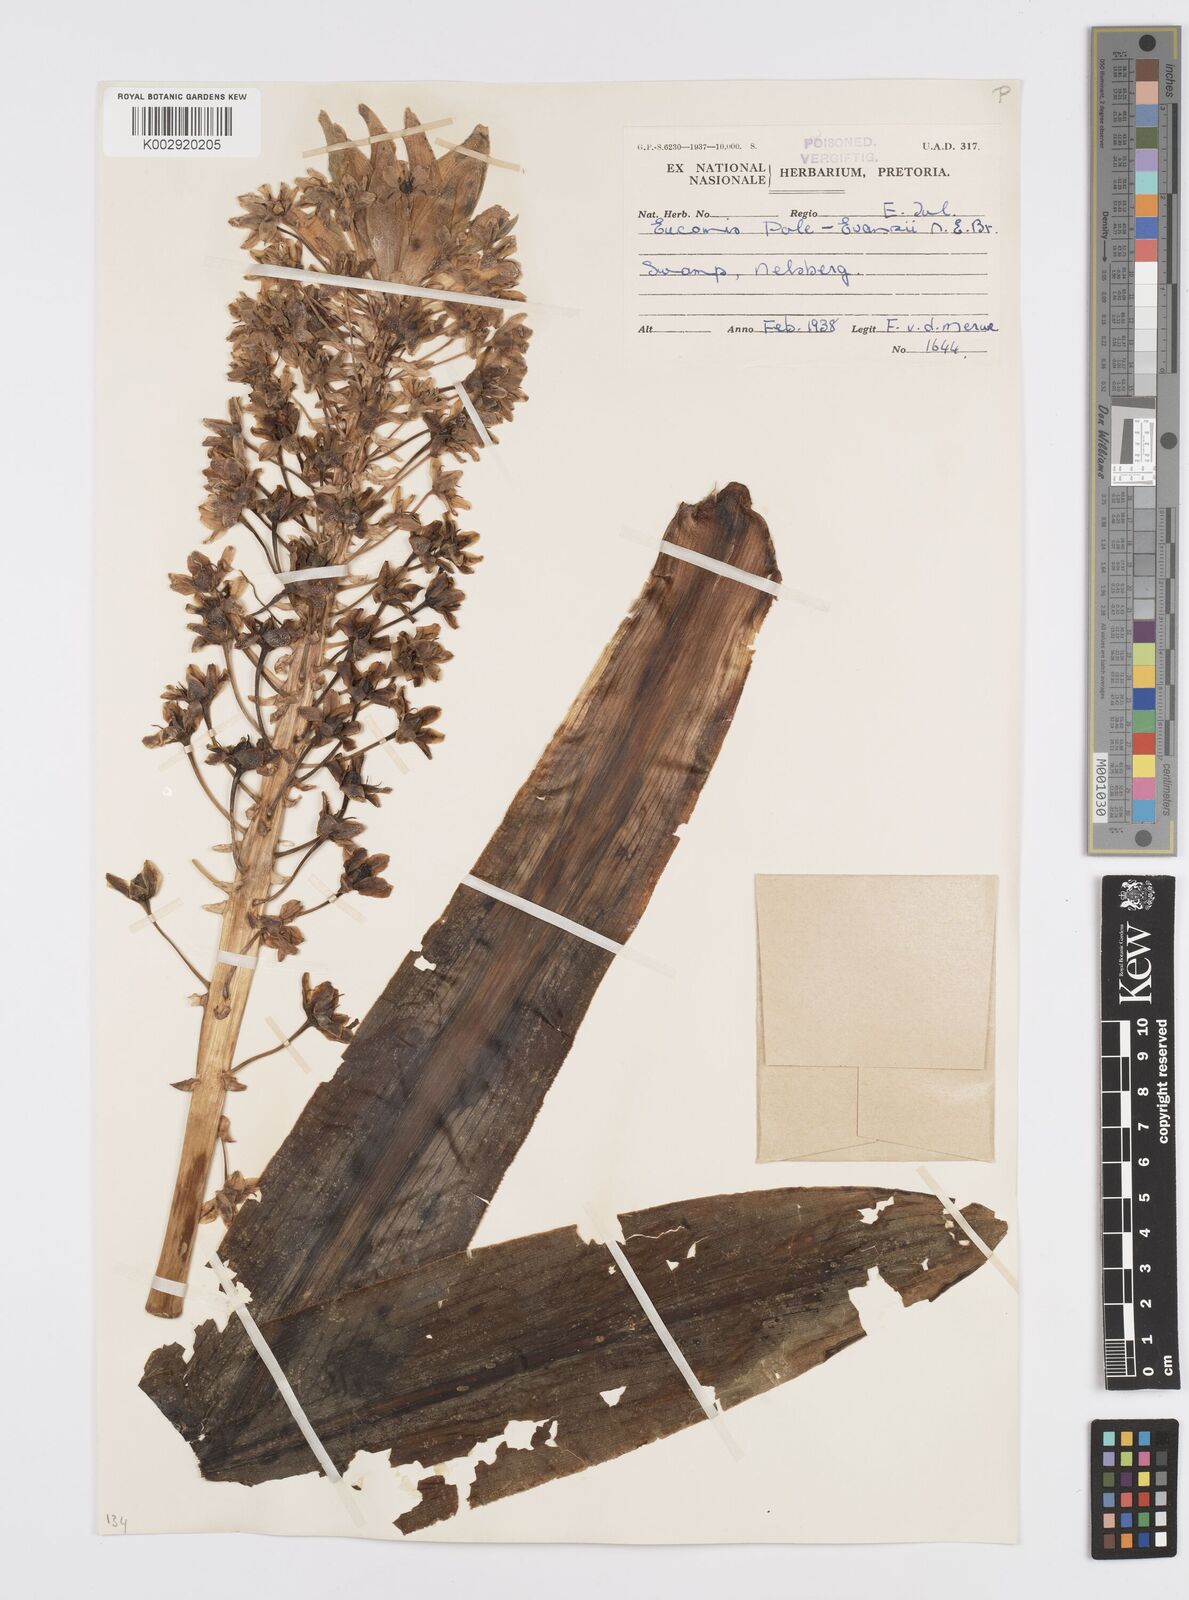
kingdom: Plantae
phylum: Tracheophyta
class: Liliopsida
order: Asparagales
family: Asparagaceae
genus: Eucomis
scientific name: Eucomis
